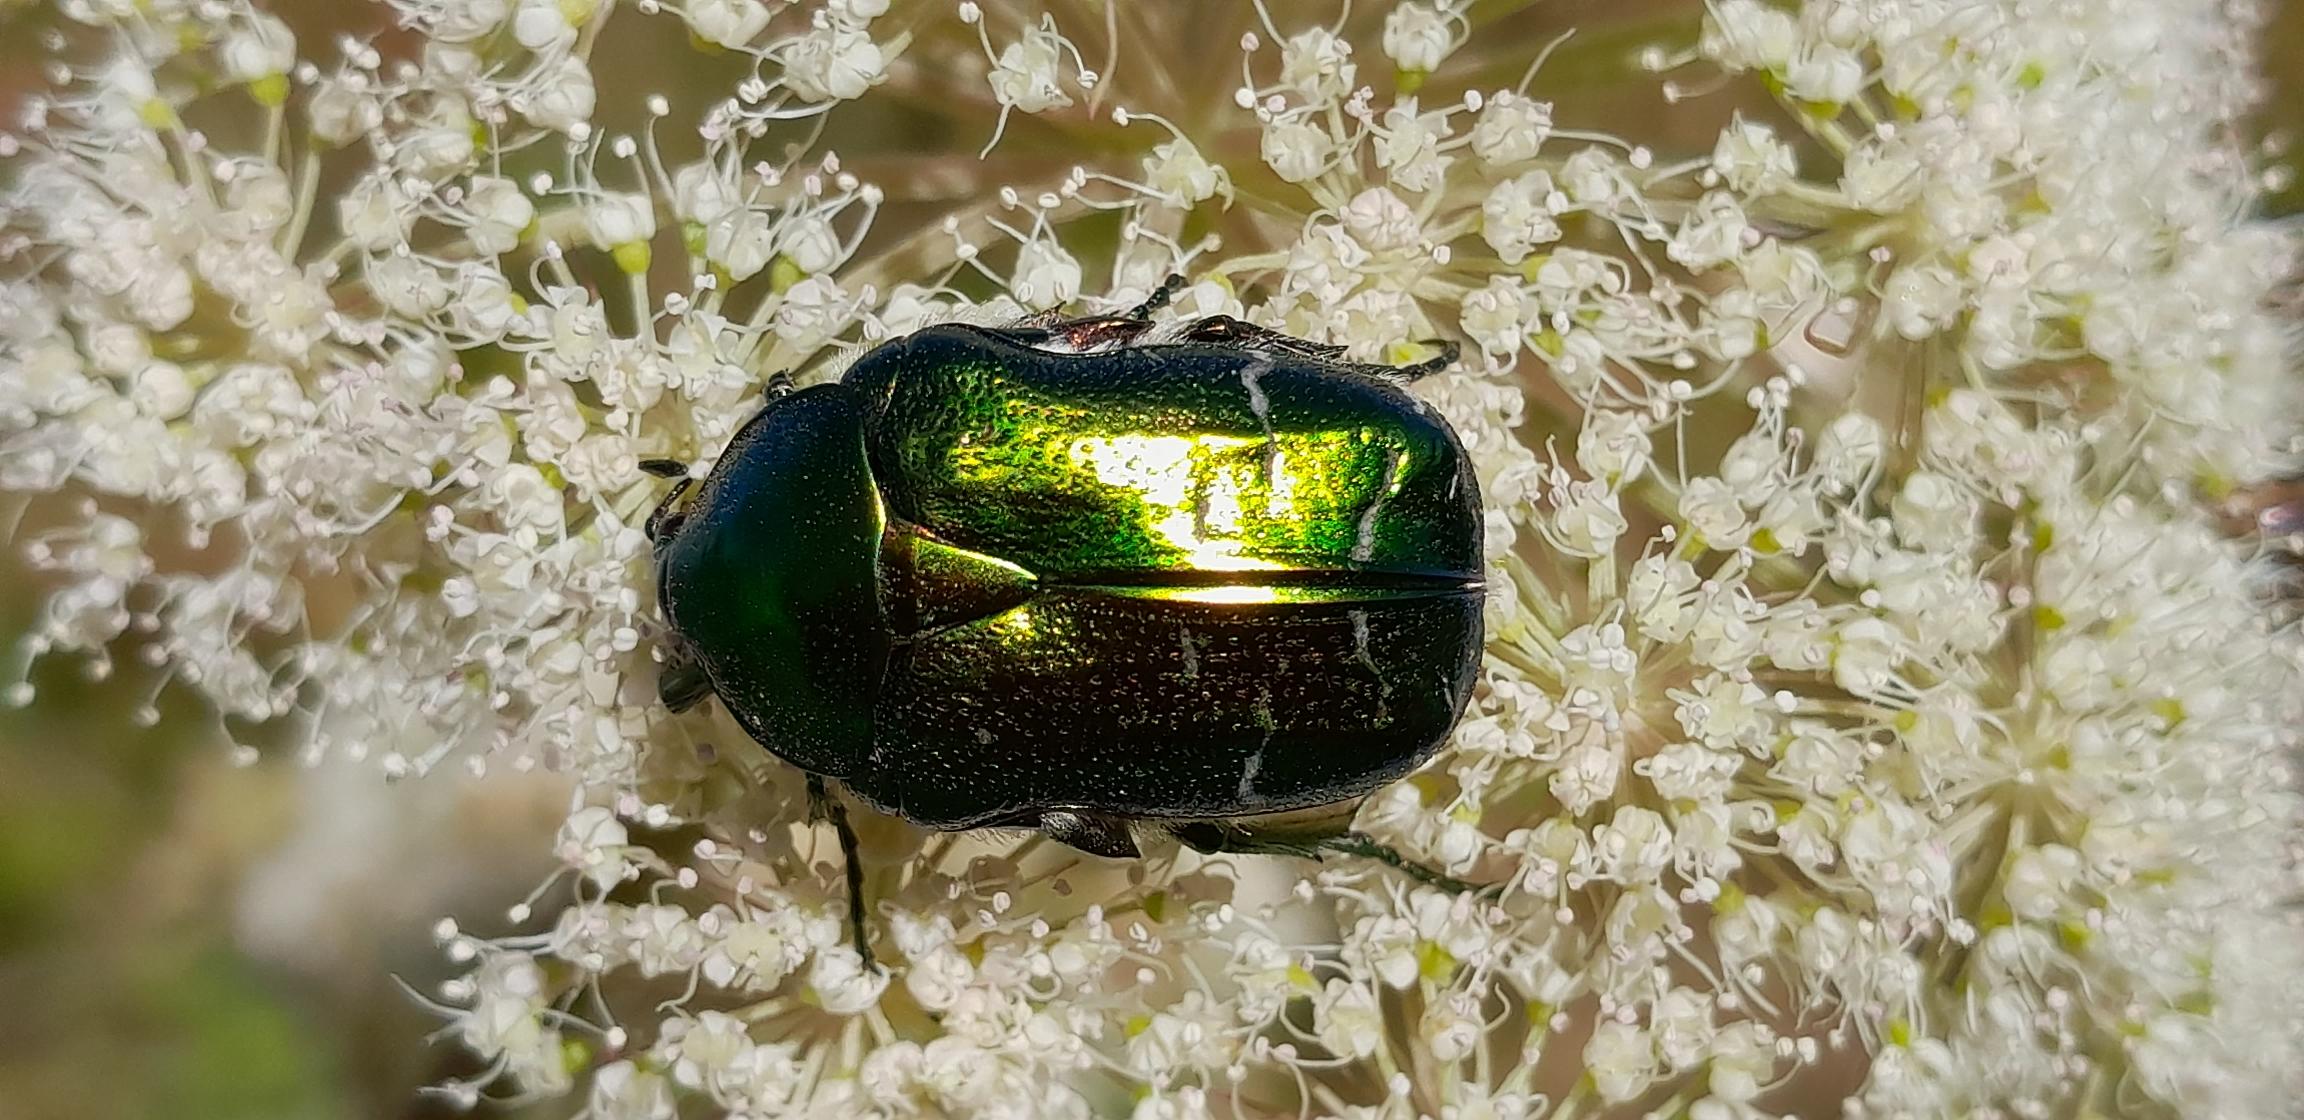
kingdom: Animalia
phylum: Arthropoda
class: Insecta
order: Coleoptera
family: Scarabaeidae
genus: Cetonia
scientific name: Cetonia aurata
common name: Grøn guldbasse
